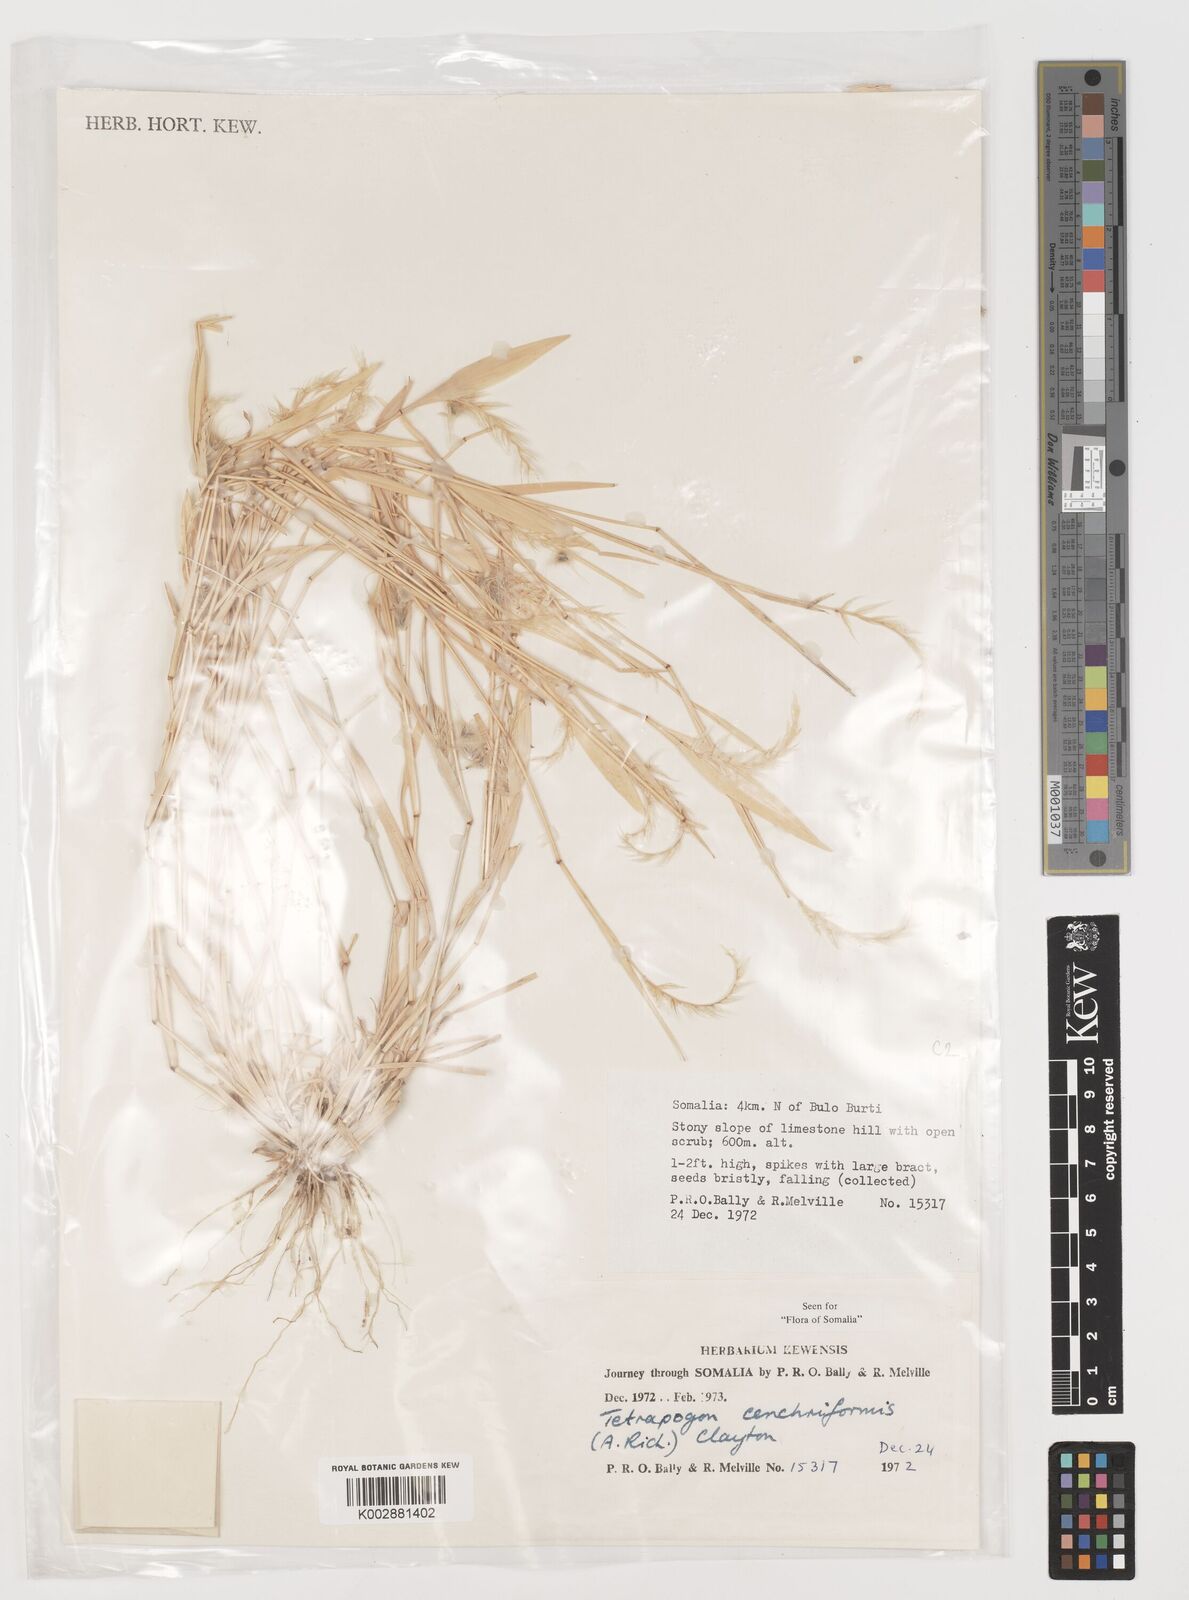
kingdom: Plantae
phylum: Tracheophyta
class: Liliopsida
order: Poales
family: Poaceae
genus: Tetrapogon
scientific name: Tetrapogon cenchriformis
